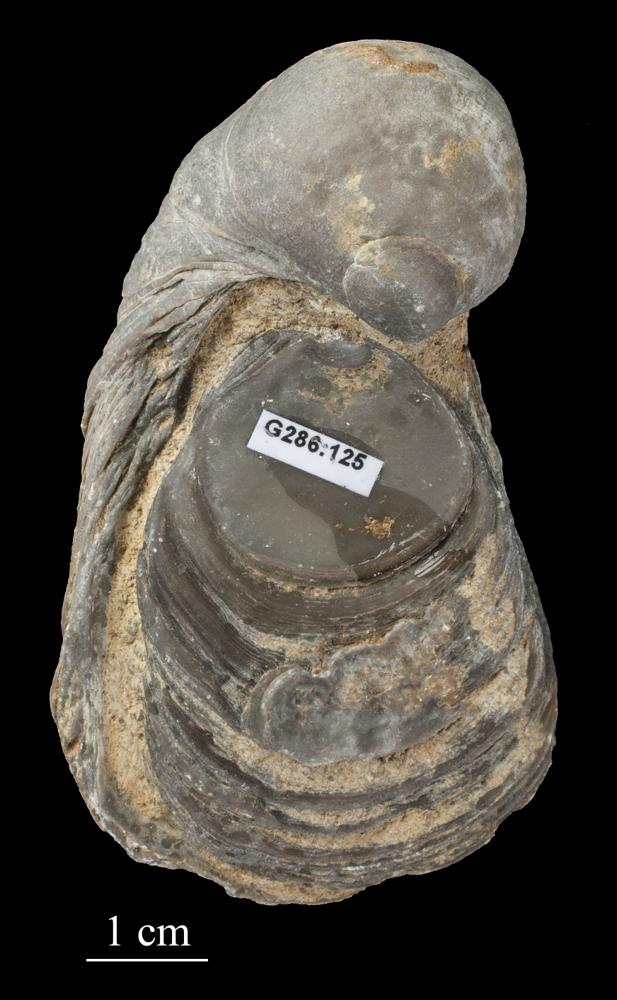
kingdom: Animalia
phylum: Mollusca
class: Bivalvia
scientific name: Bivalvia
